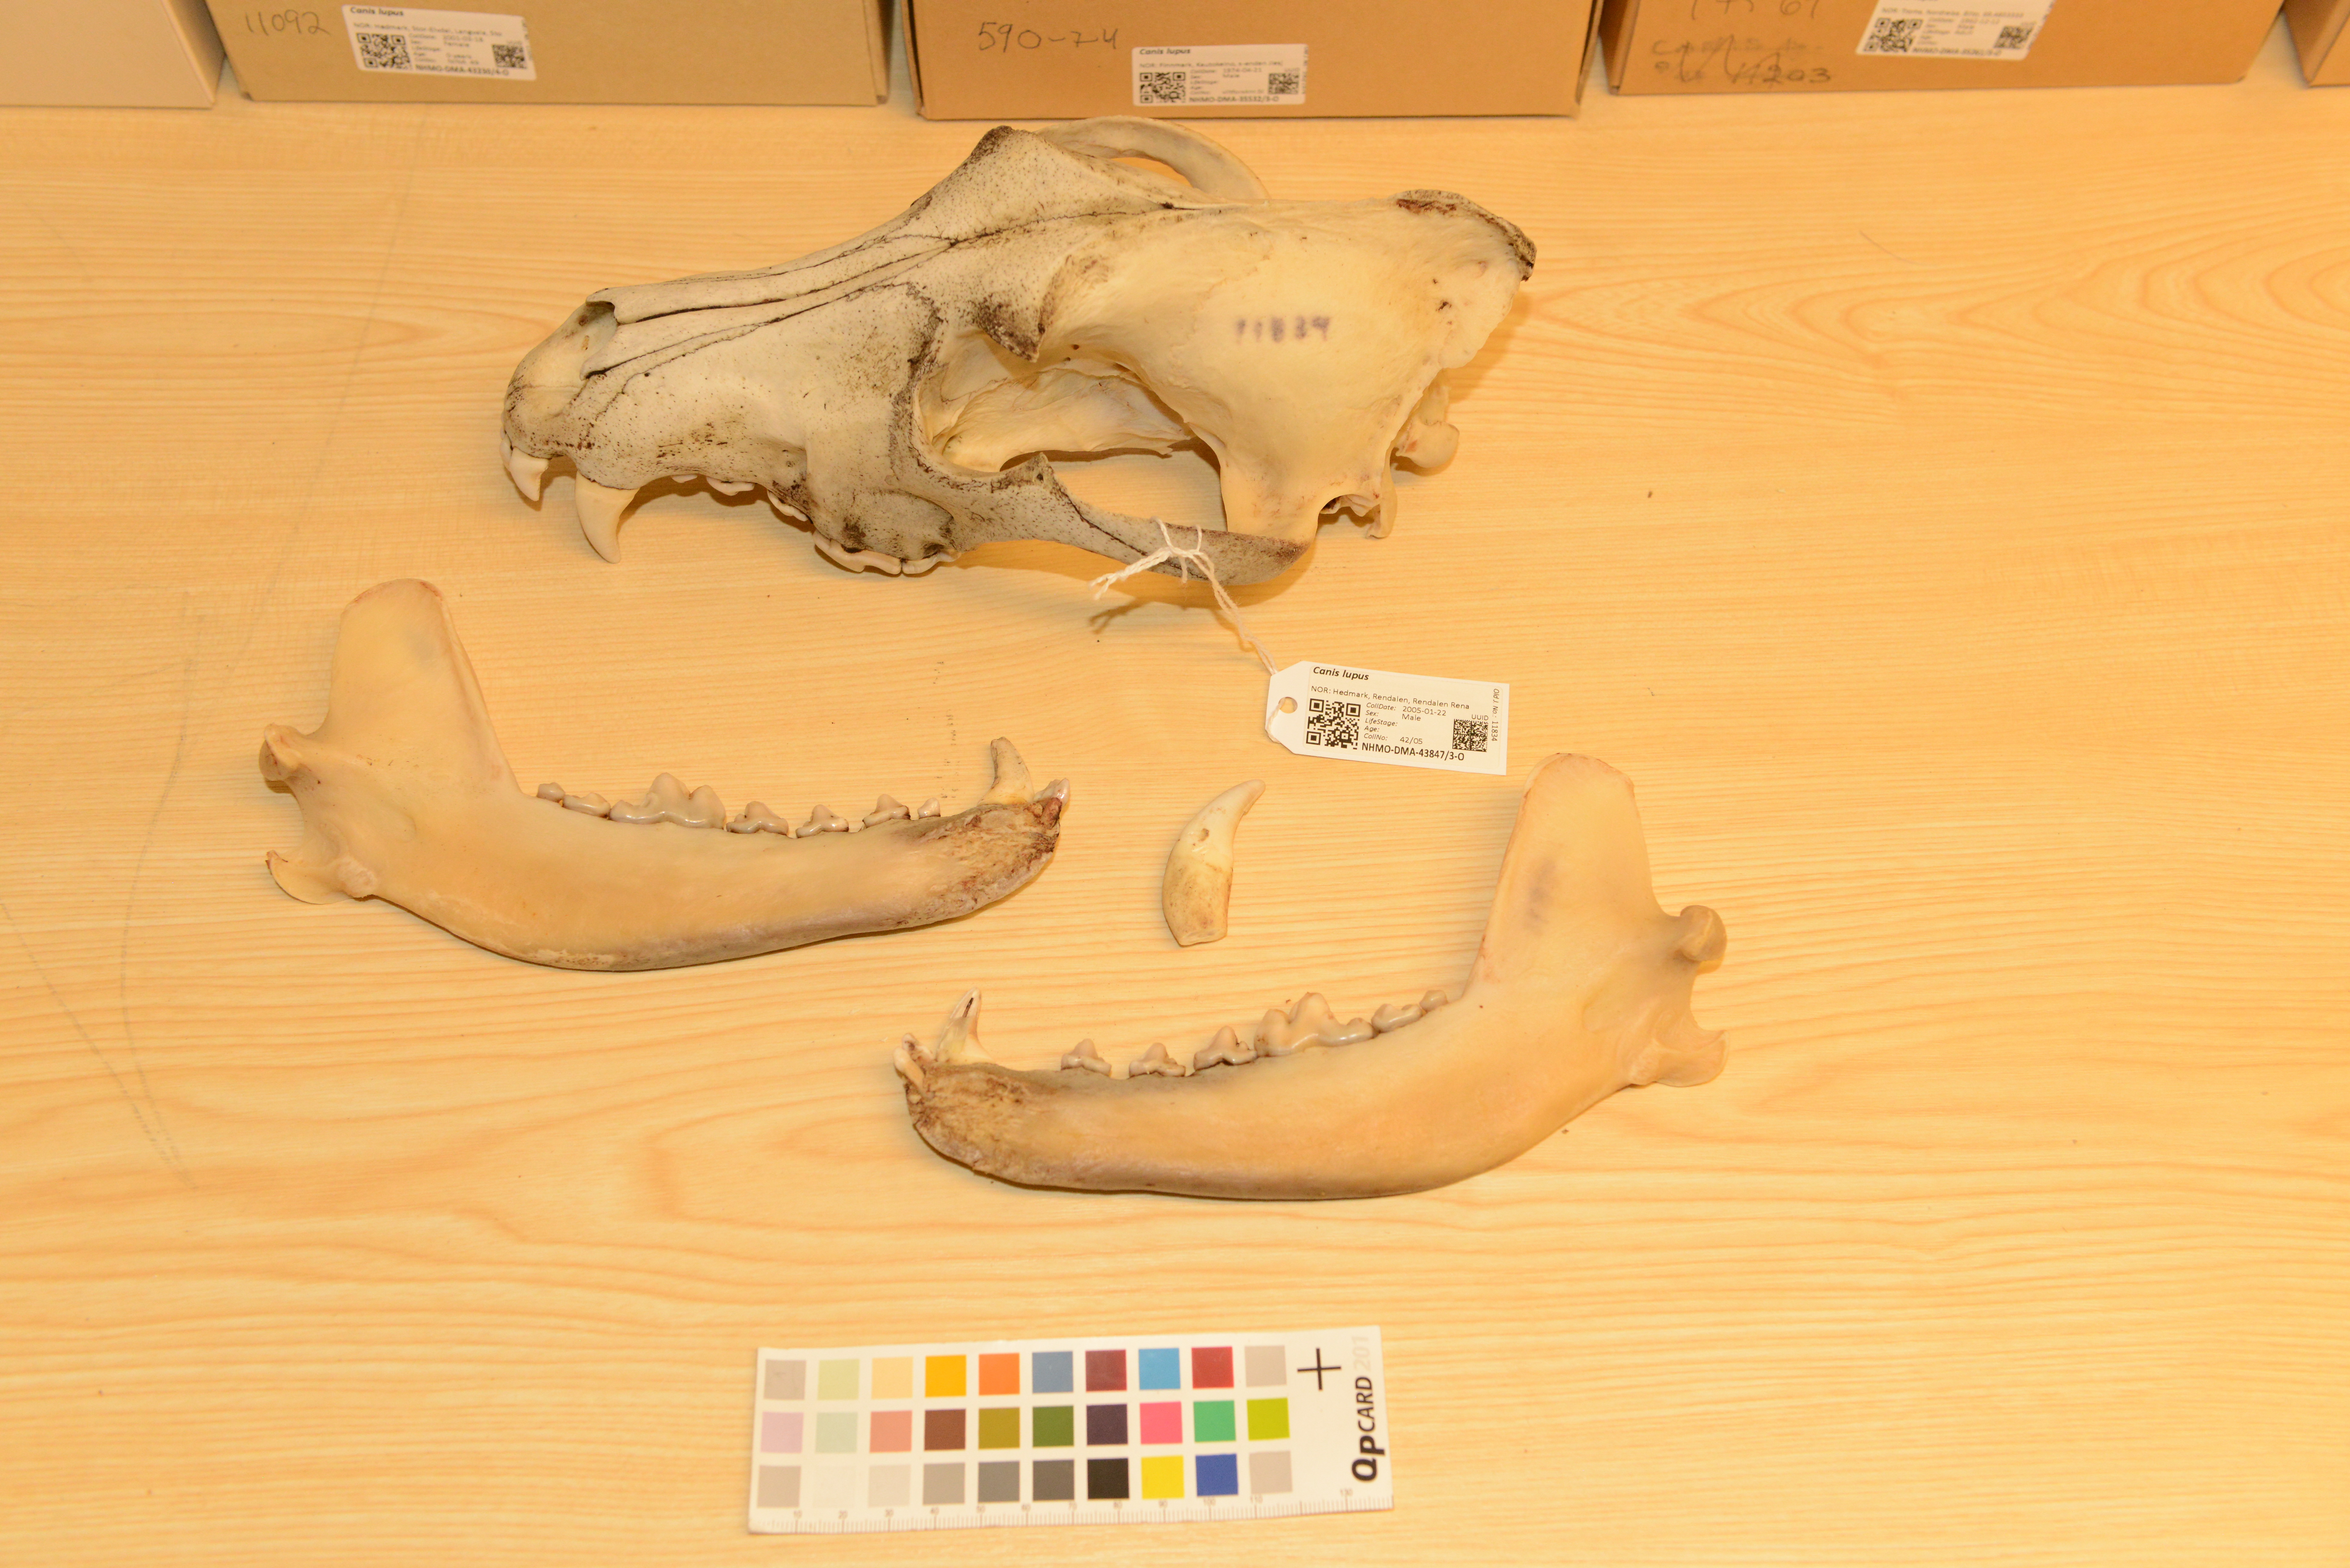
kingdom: Animalia
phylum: Chordata
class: Mammalia
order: Carnivora
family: Canidae
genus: Canis
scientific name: Canis lupus
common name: Gray wolf
